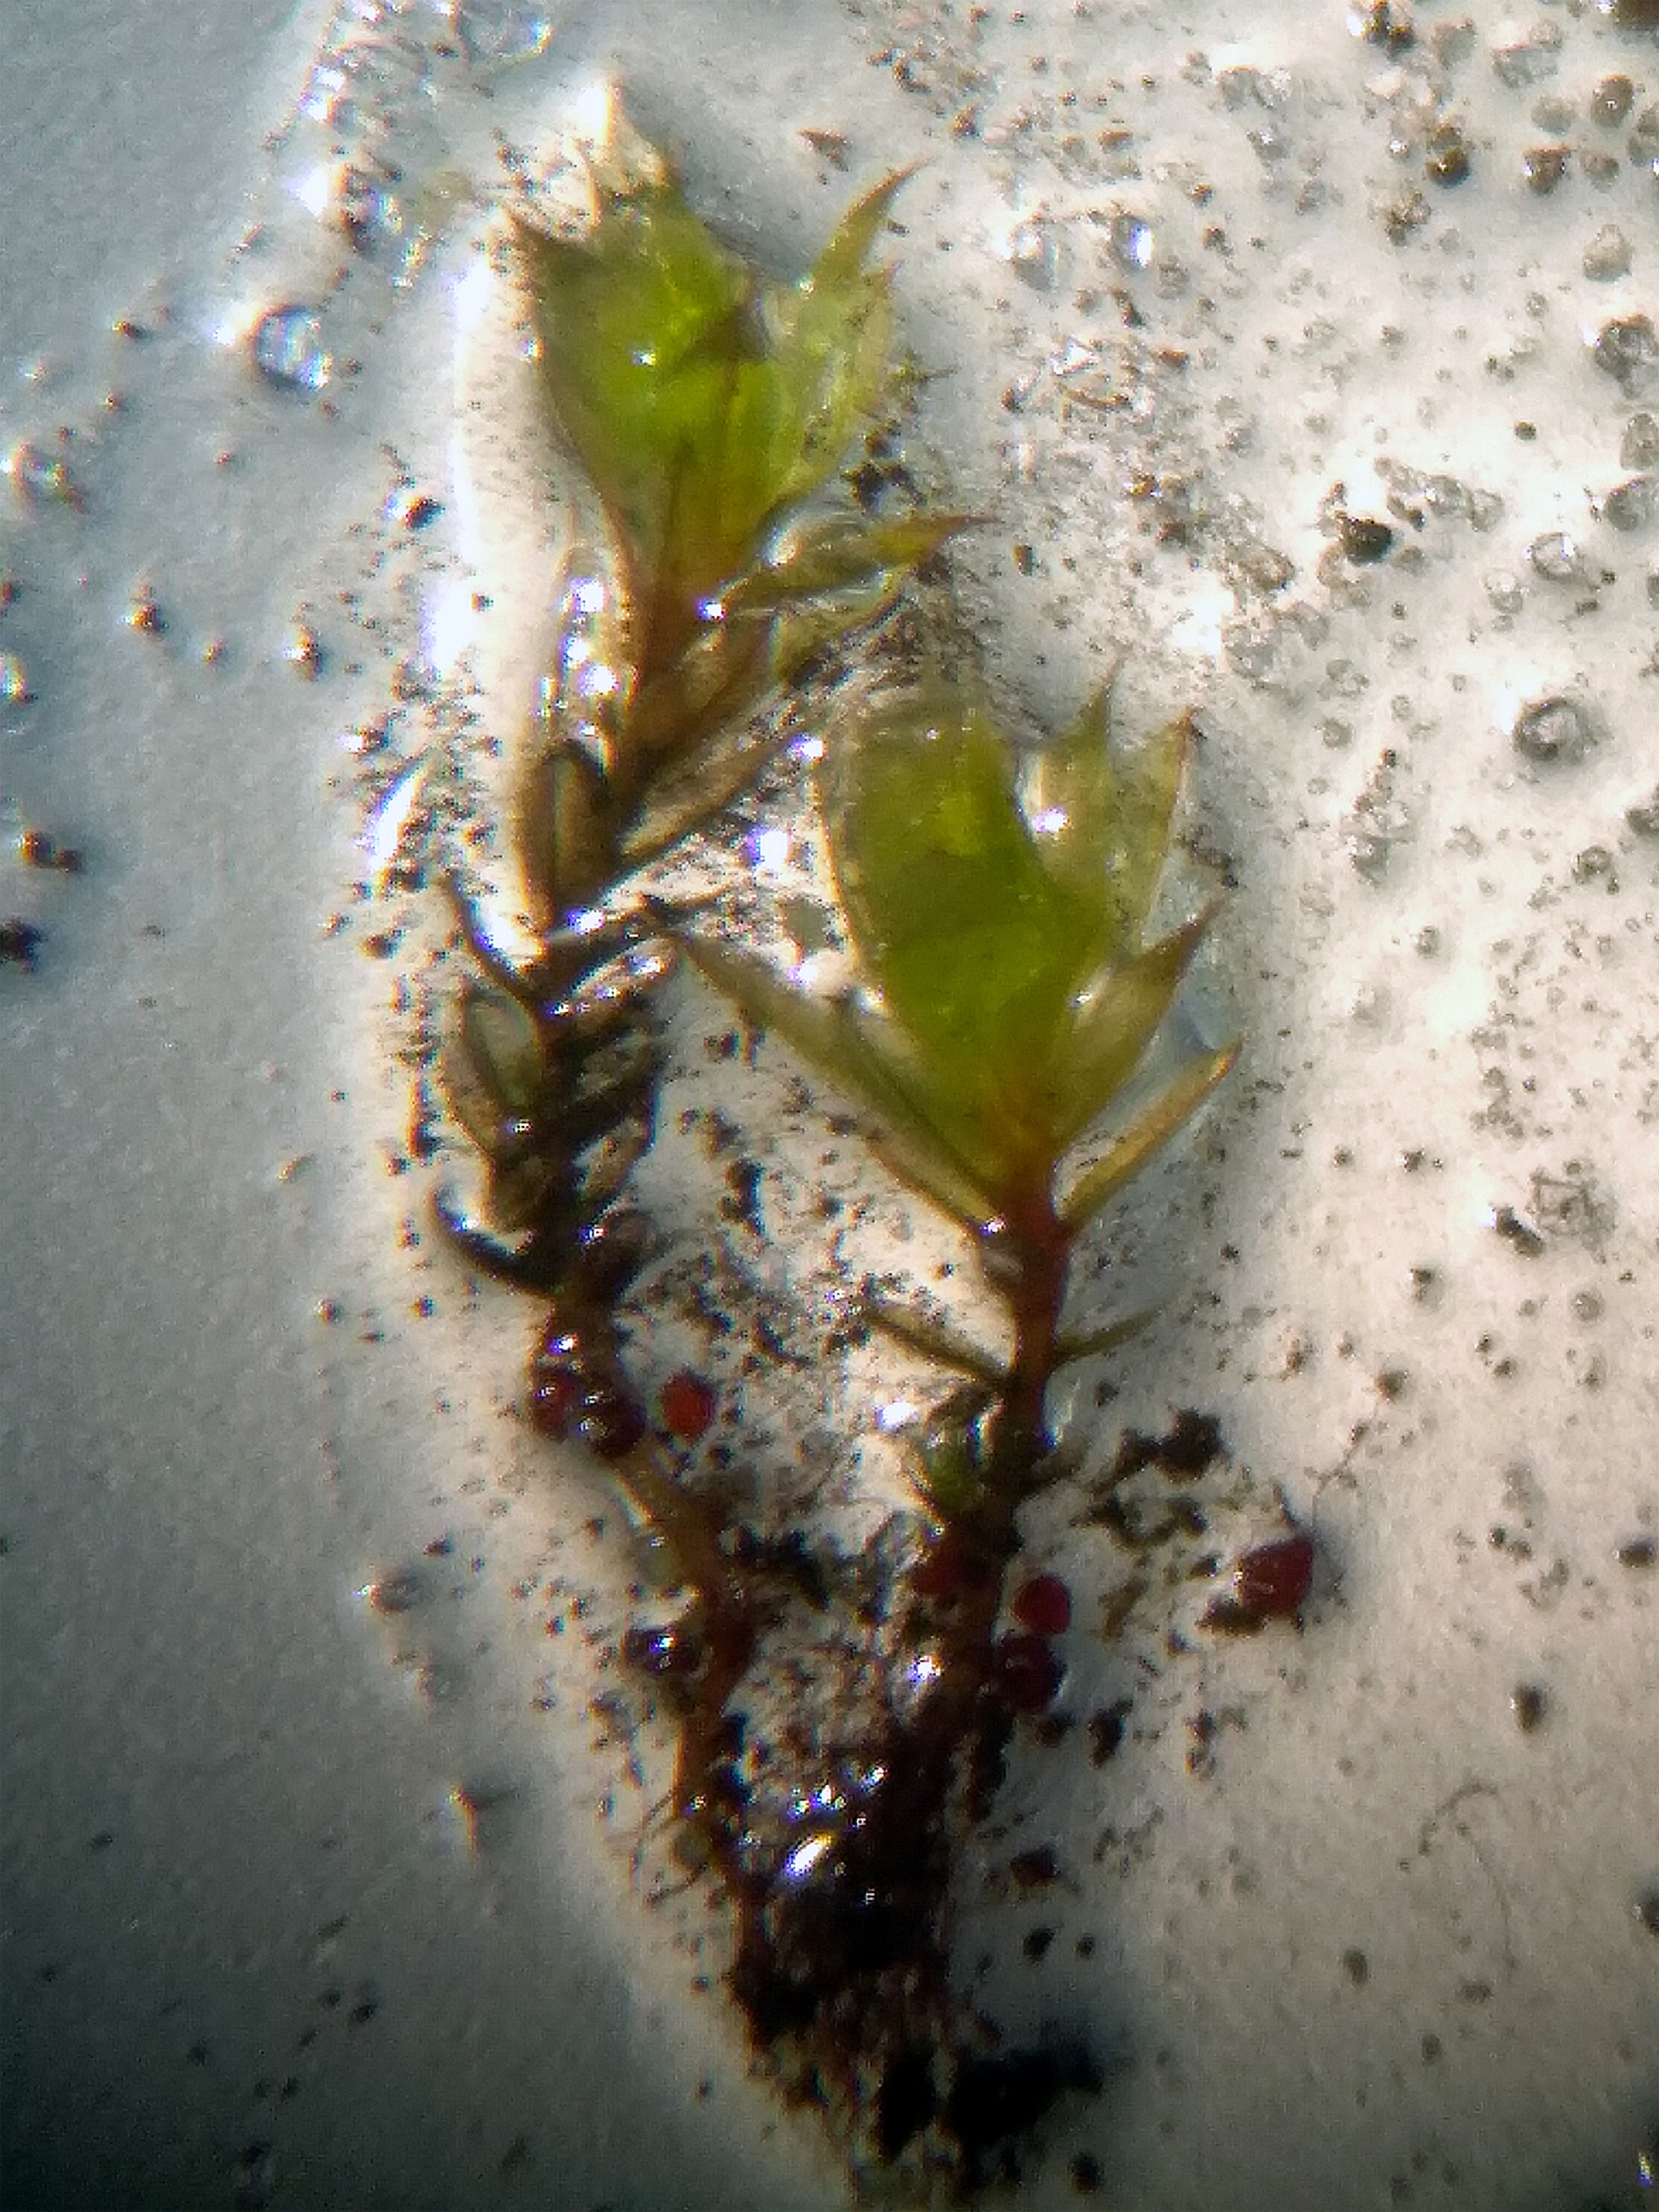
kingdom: Plantae
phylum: Bryophyta
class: Bryopsida
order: Bryales
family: Bryaceae
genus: Rosulabryum
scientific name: Rosulabryum rubens
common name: Mark-bryum
